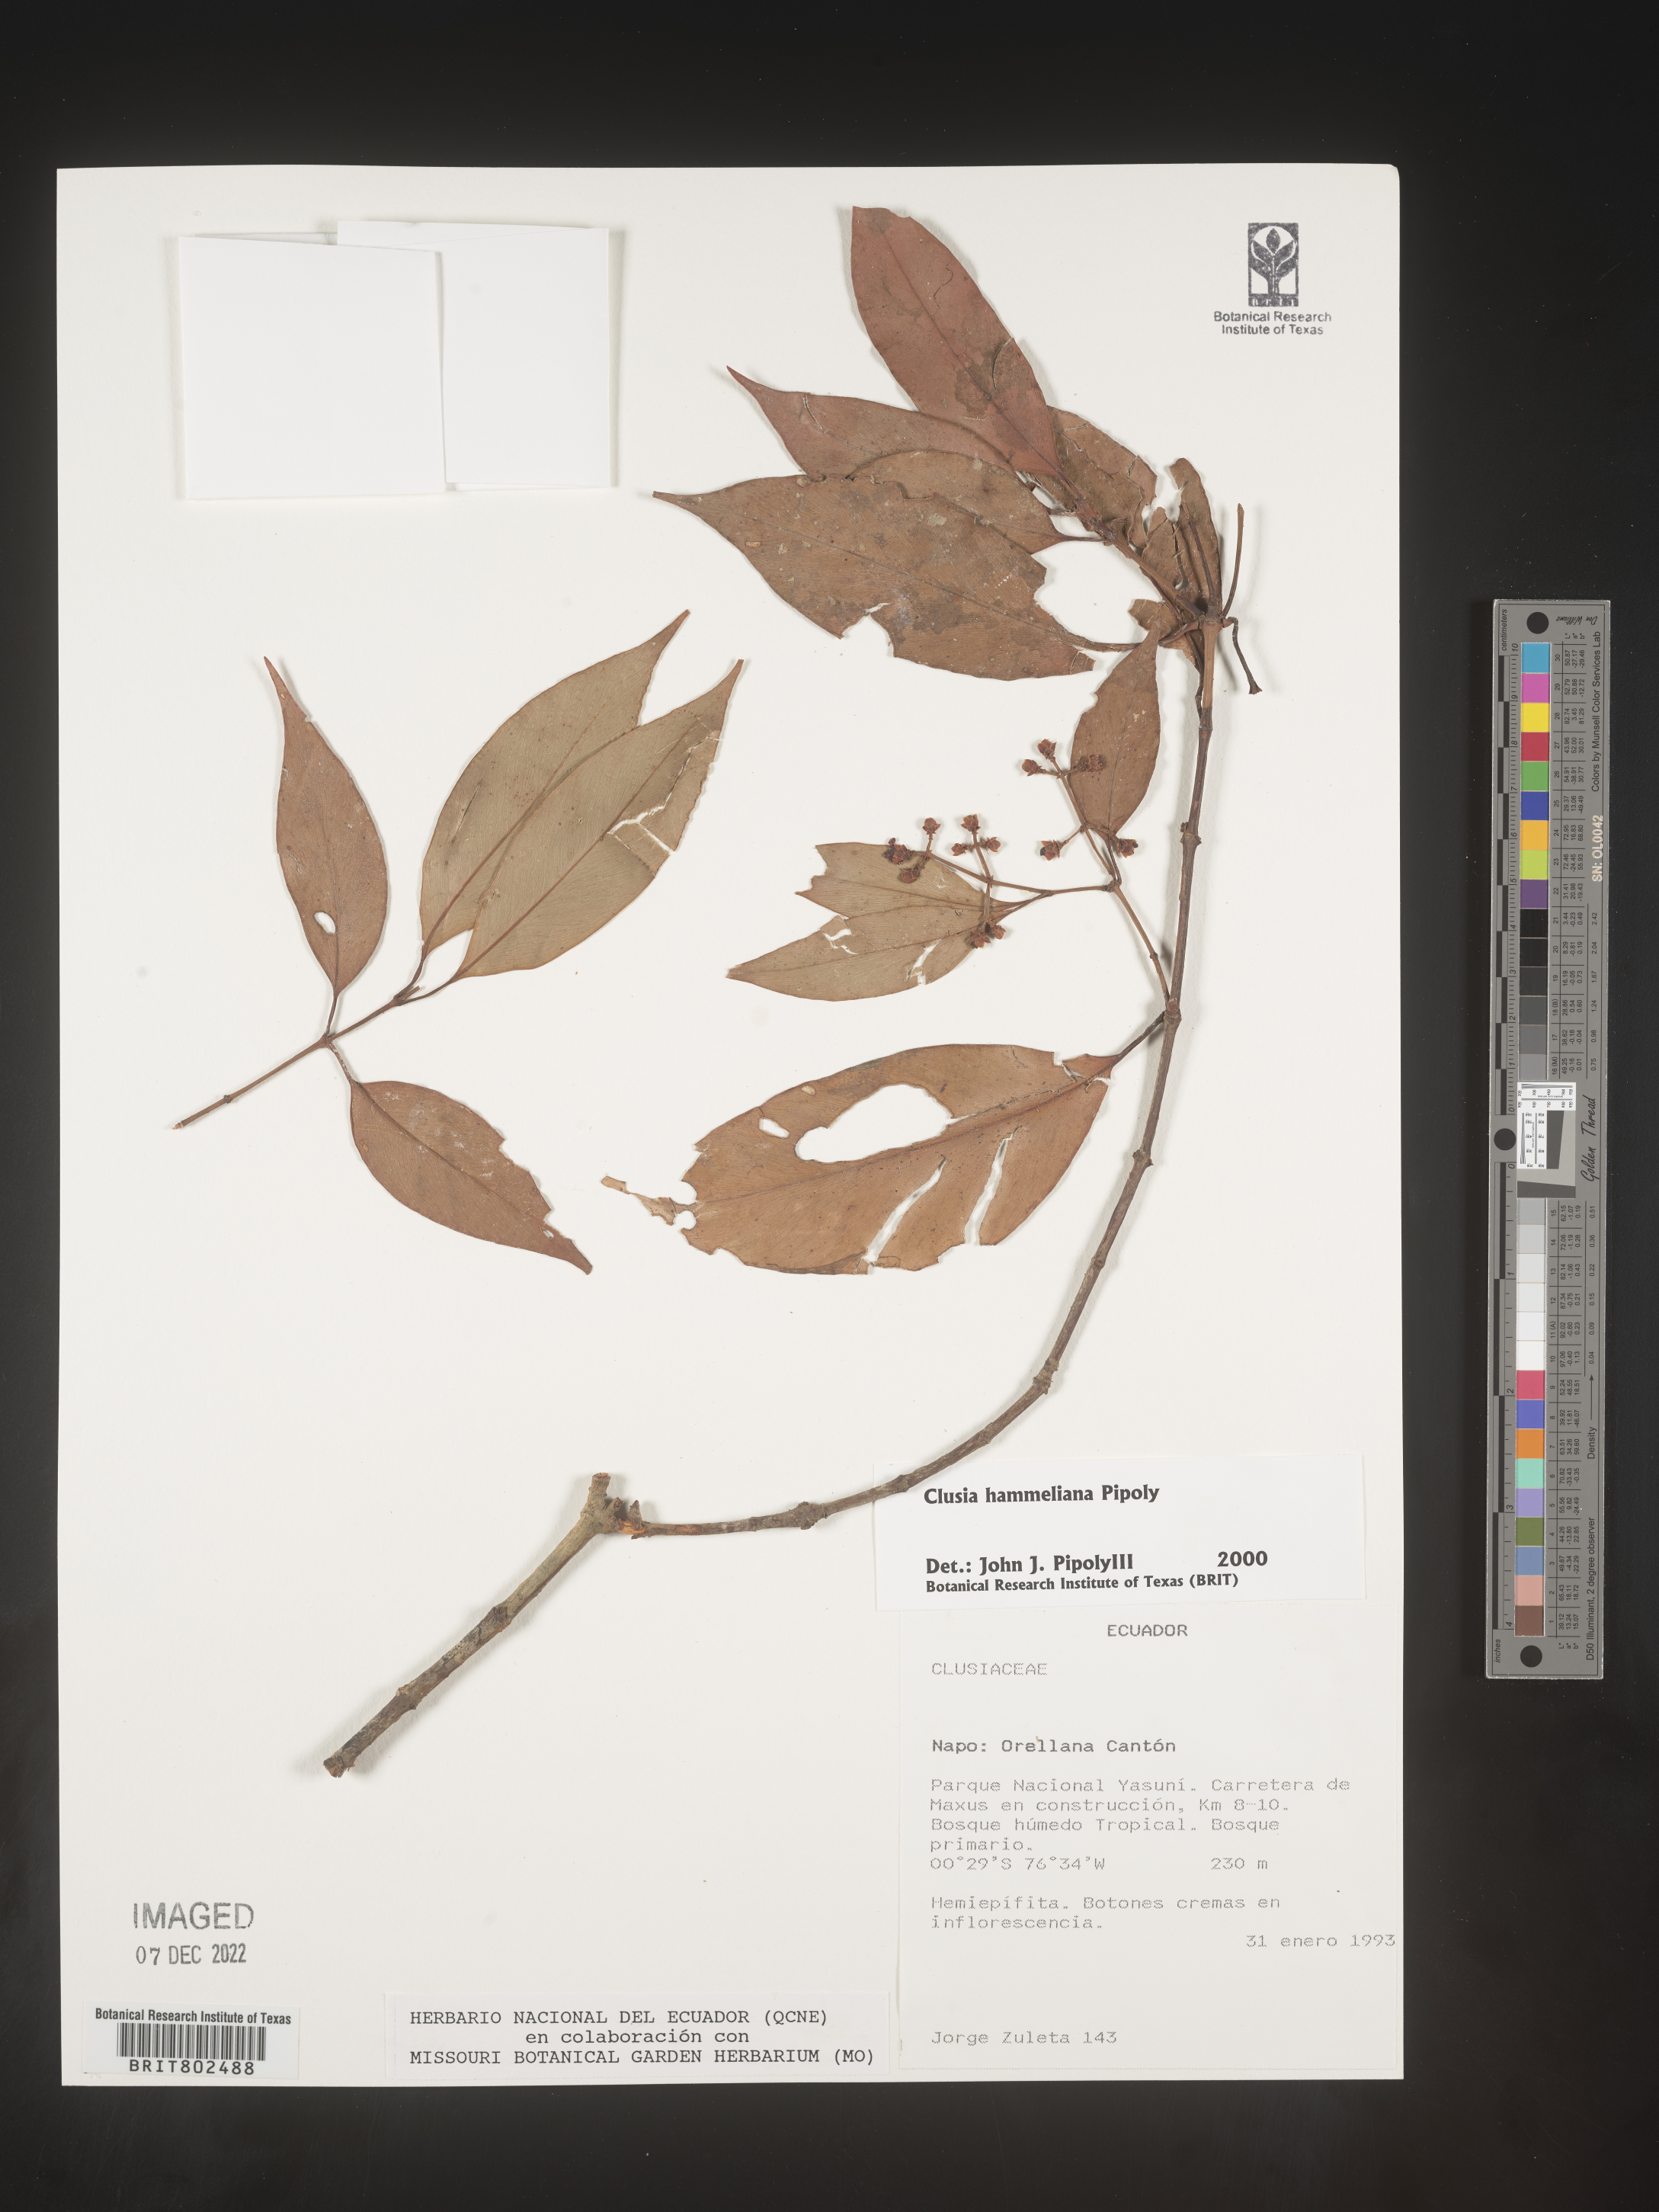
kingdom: Plantae
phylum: Tracheophyta
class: Magnoliopsida
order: Malpighiales
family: Clusiaceae
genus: Clusia
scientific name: Clusia hammeliana
